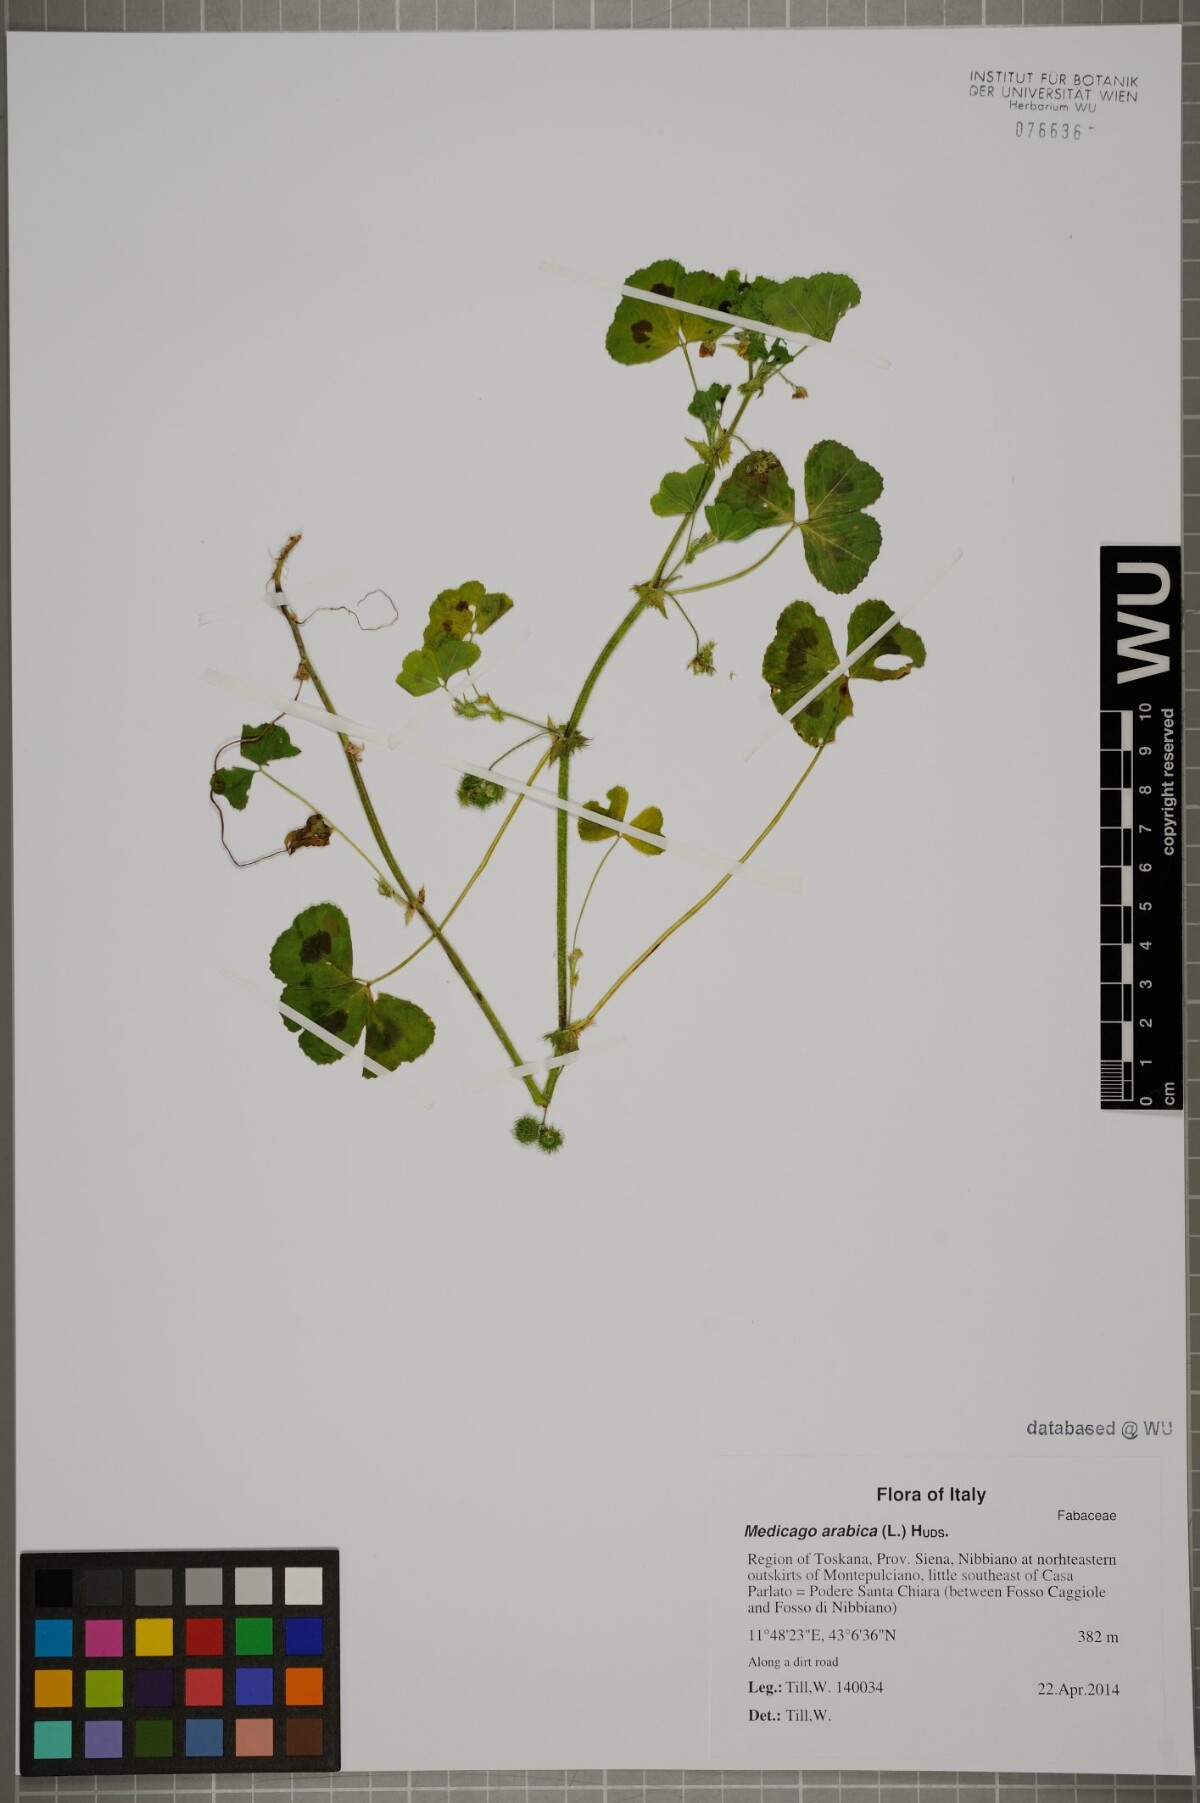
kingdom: Plantae
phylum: Tracheophyta
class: Magnoliopsida
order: Fabales
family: Fabaceae
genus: Medicago
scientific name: Medicago arabica
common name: Spotted medick
